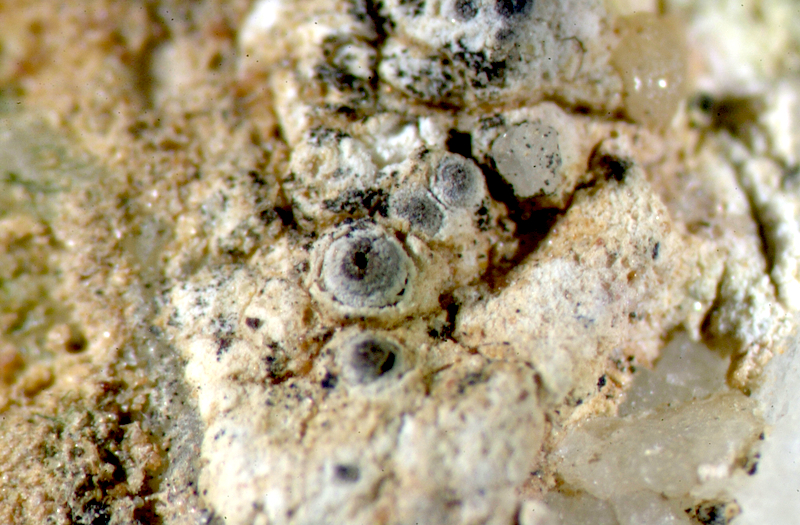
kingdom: Fungi
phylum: Ascomycota
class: Lecanoromycetes
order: Ostropales
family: Graphidaceae
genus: Diploschistes
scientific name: Diploschistes
